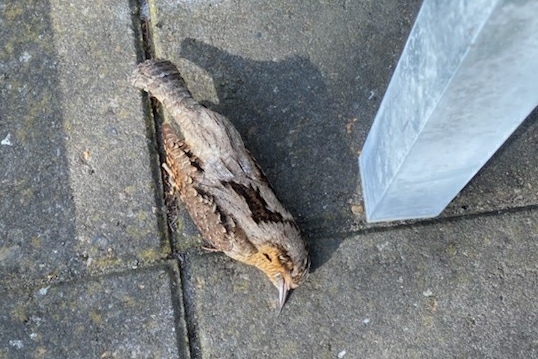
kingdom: Animalia
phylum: Chordata
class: Aves
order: Piciformes
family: Picidae
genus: Jynx
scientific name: Jynx torquilla
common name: Vendehals
